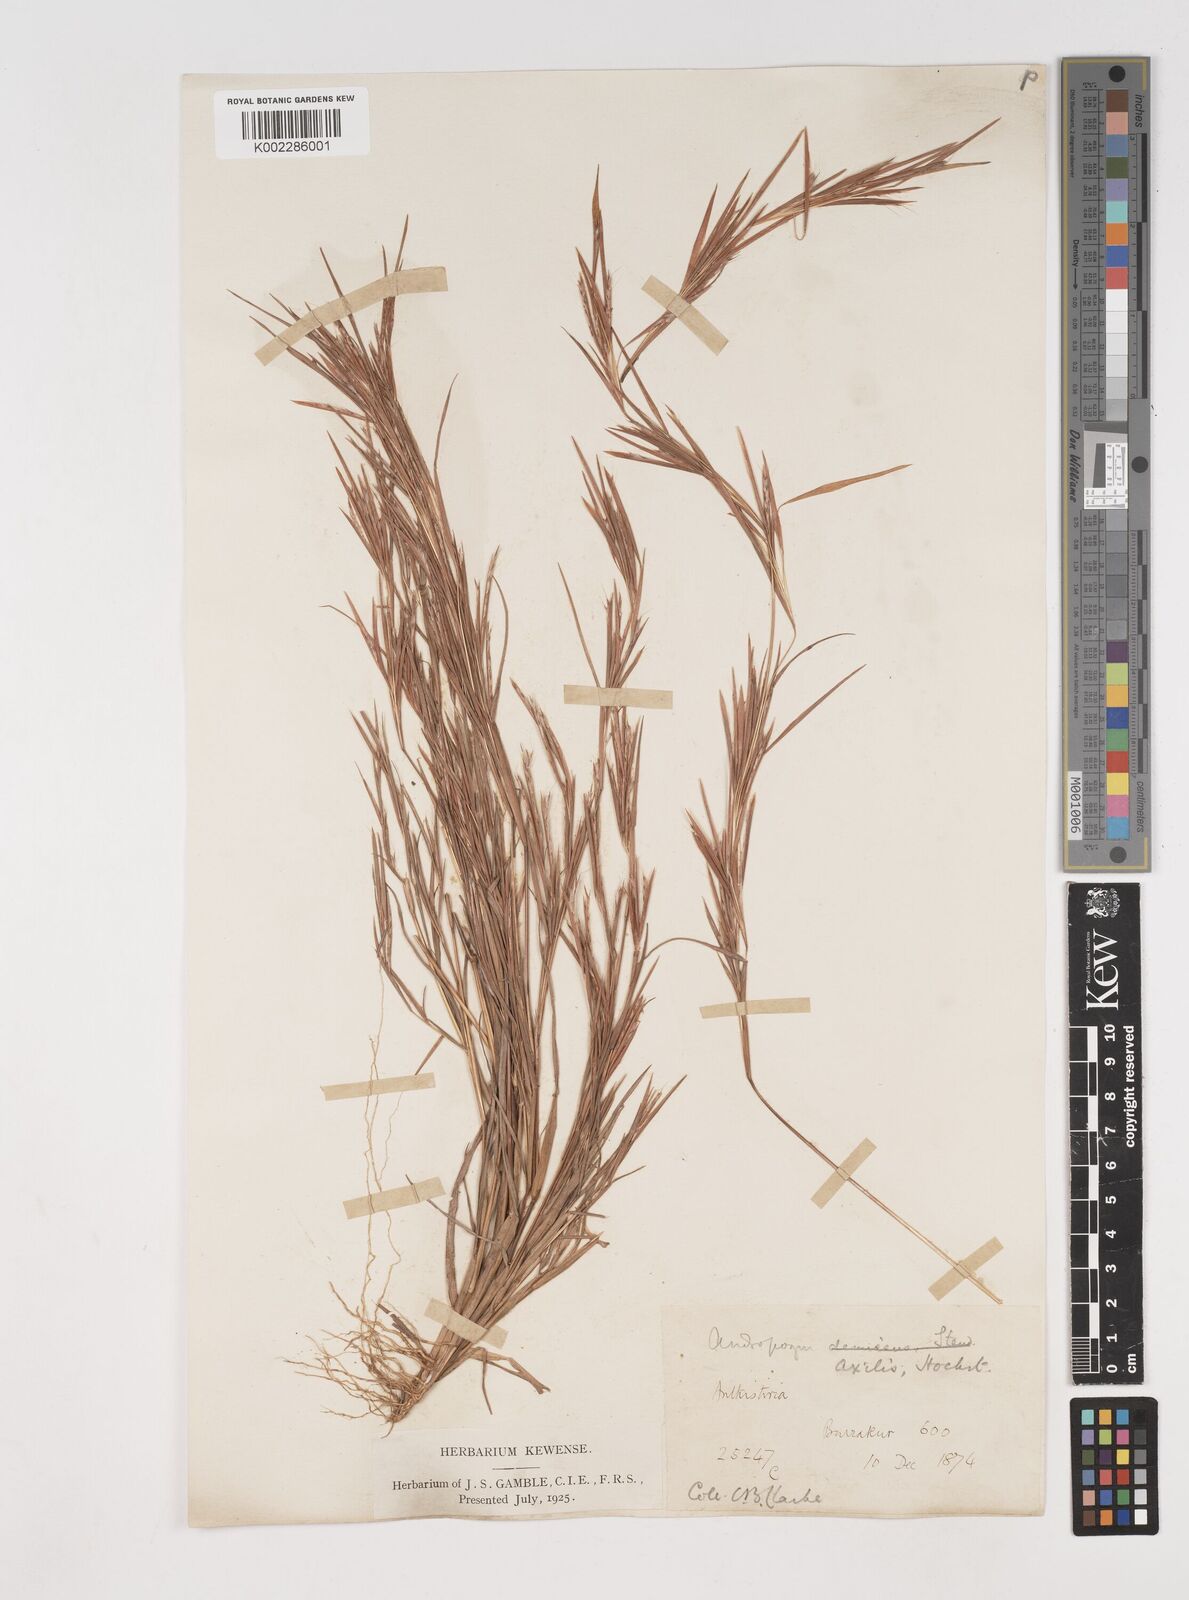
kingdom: Plantae
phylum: Tracheophyta
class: Liliopsida
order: Poales
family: Poaceae
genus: Schizachyrium
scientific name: Schizachyrium exile
